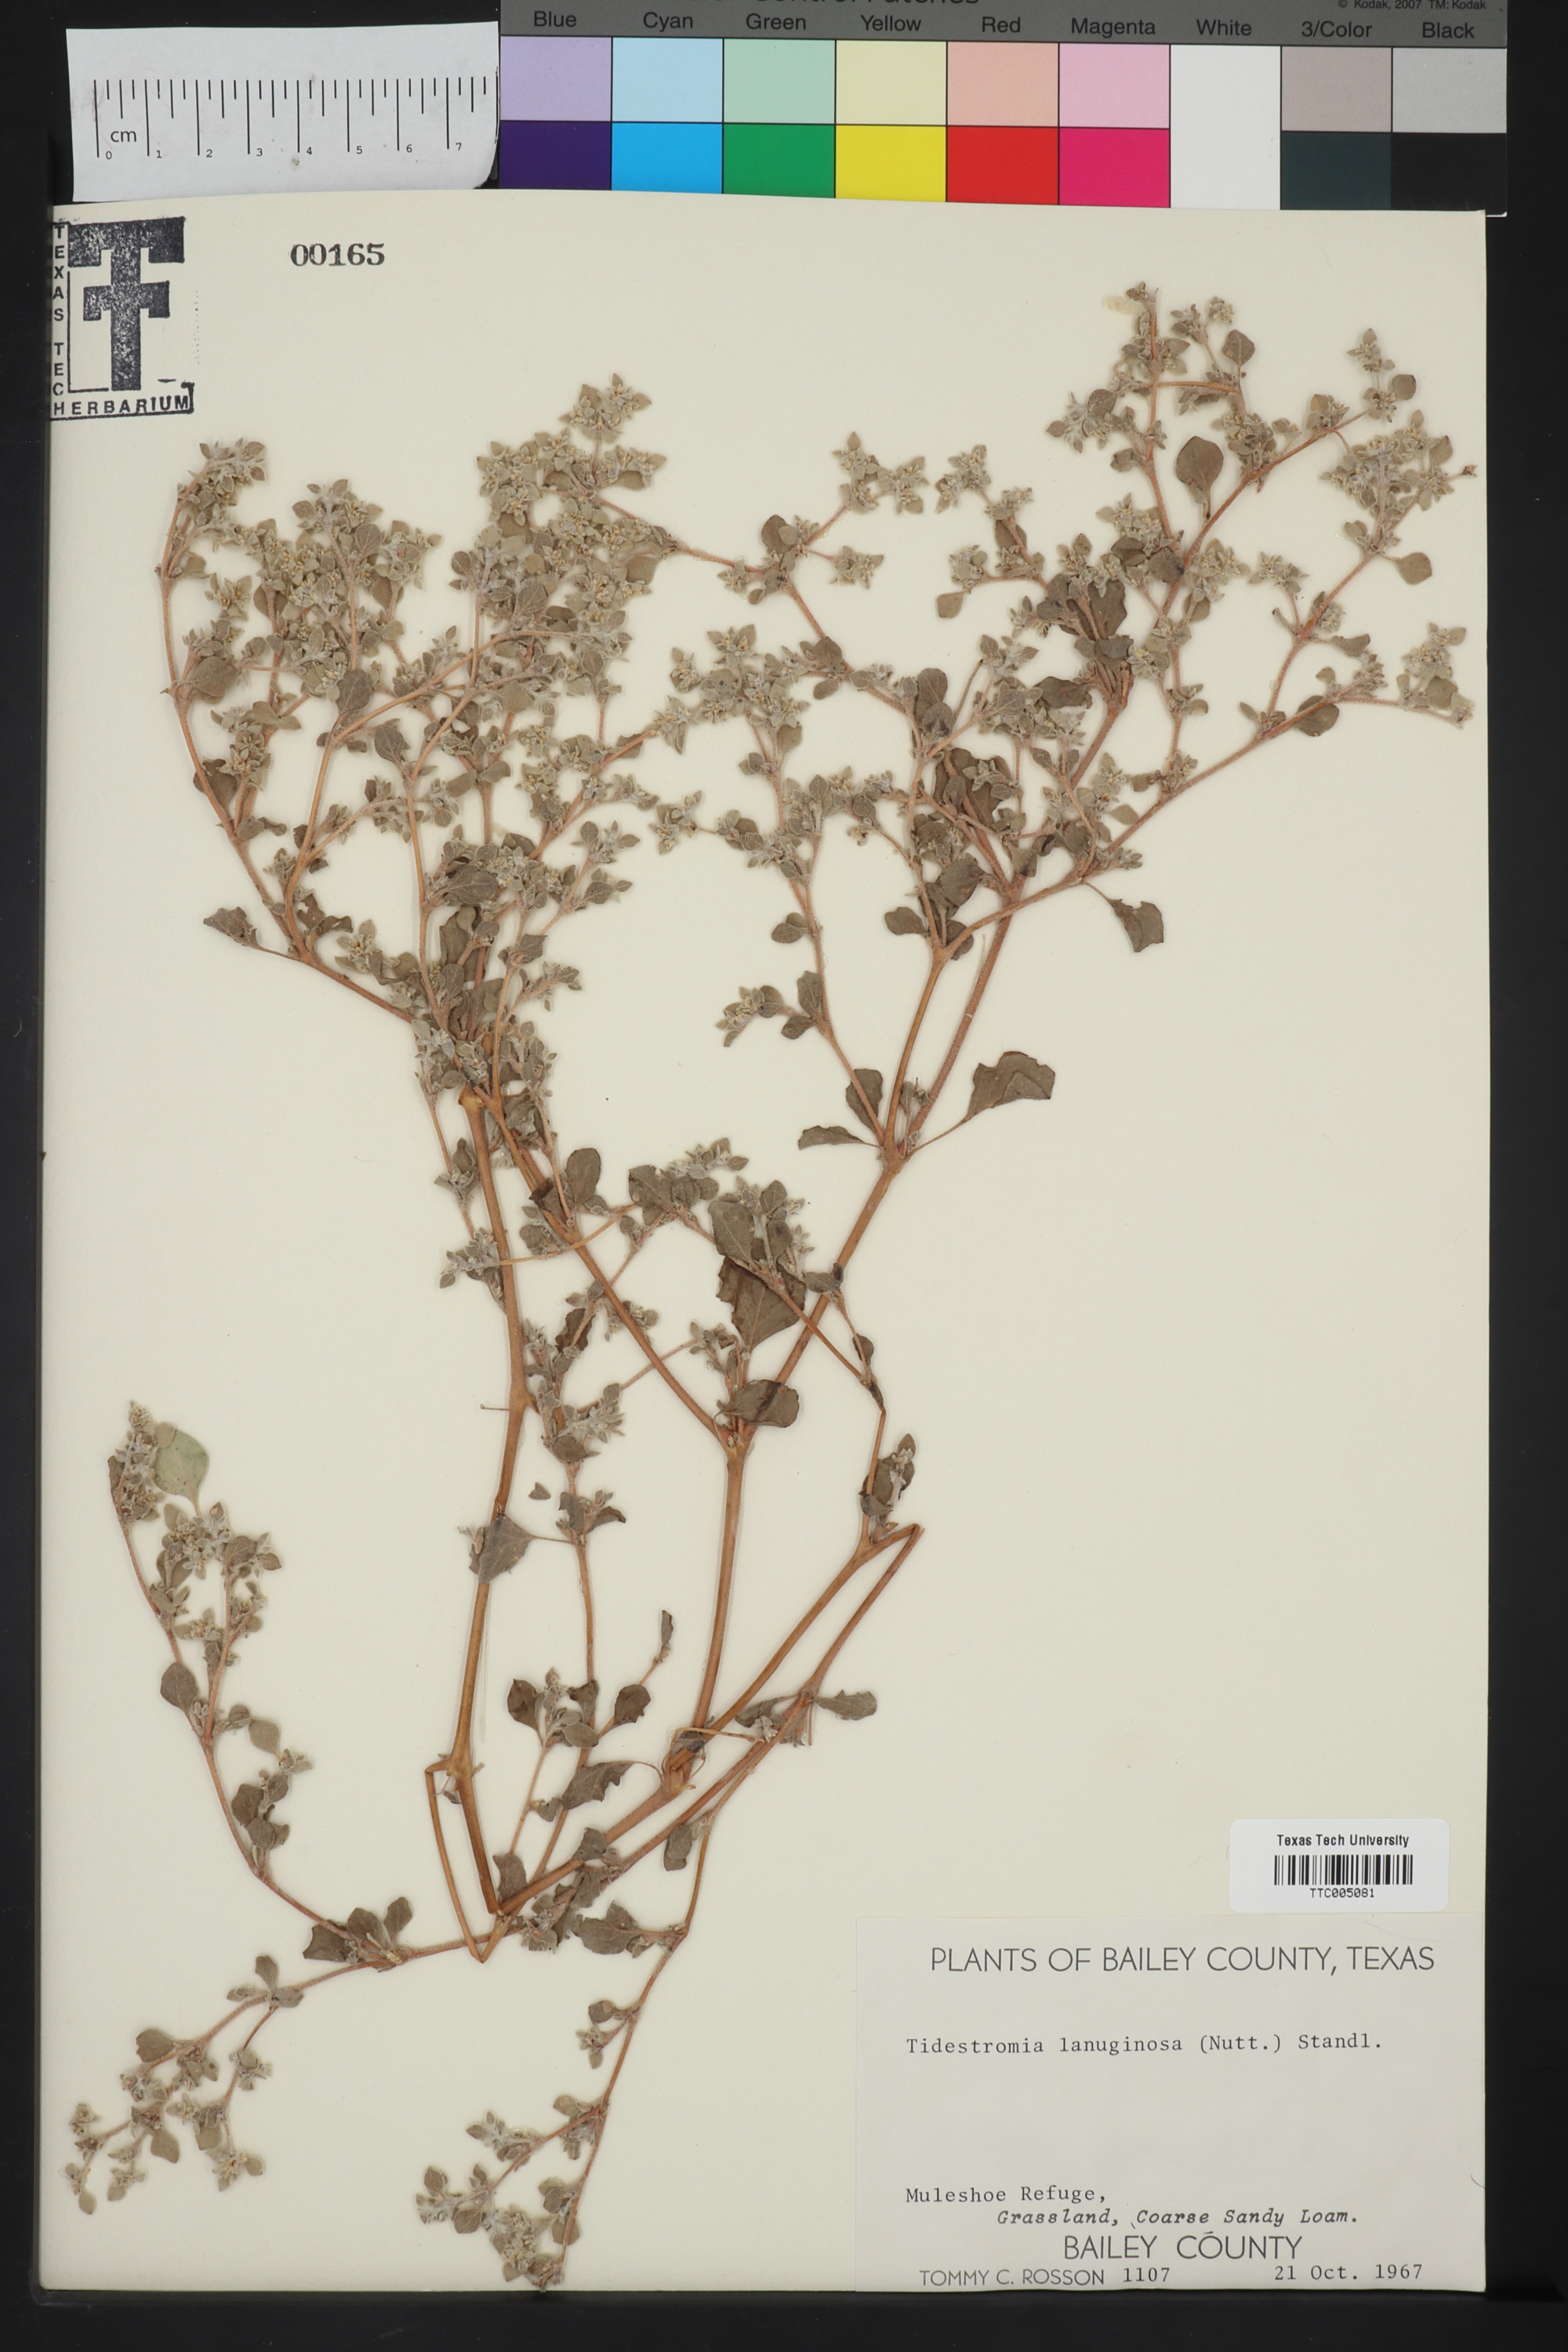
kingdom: Plantae
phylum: Tracheophyta
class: Magnoliopsida
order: Caryophyllales
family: Amaranthaceae
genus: Tidestromia
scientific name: Tidestromia lanuginosa
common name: Woolly tidestromia
